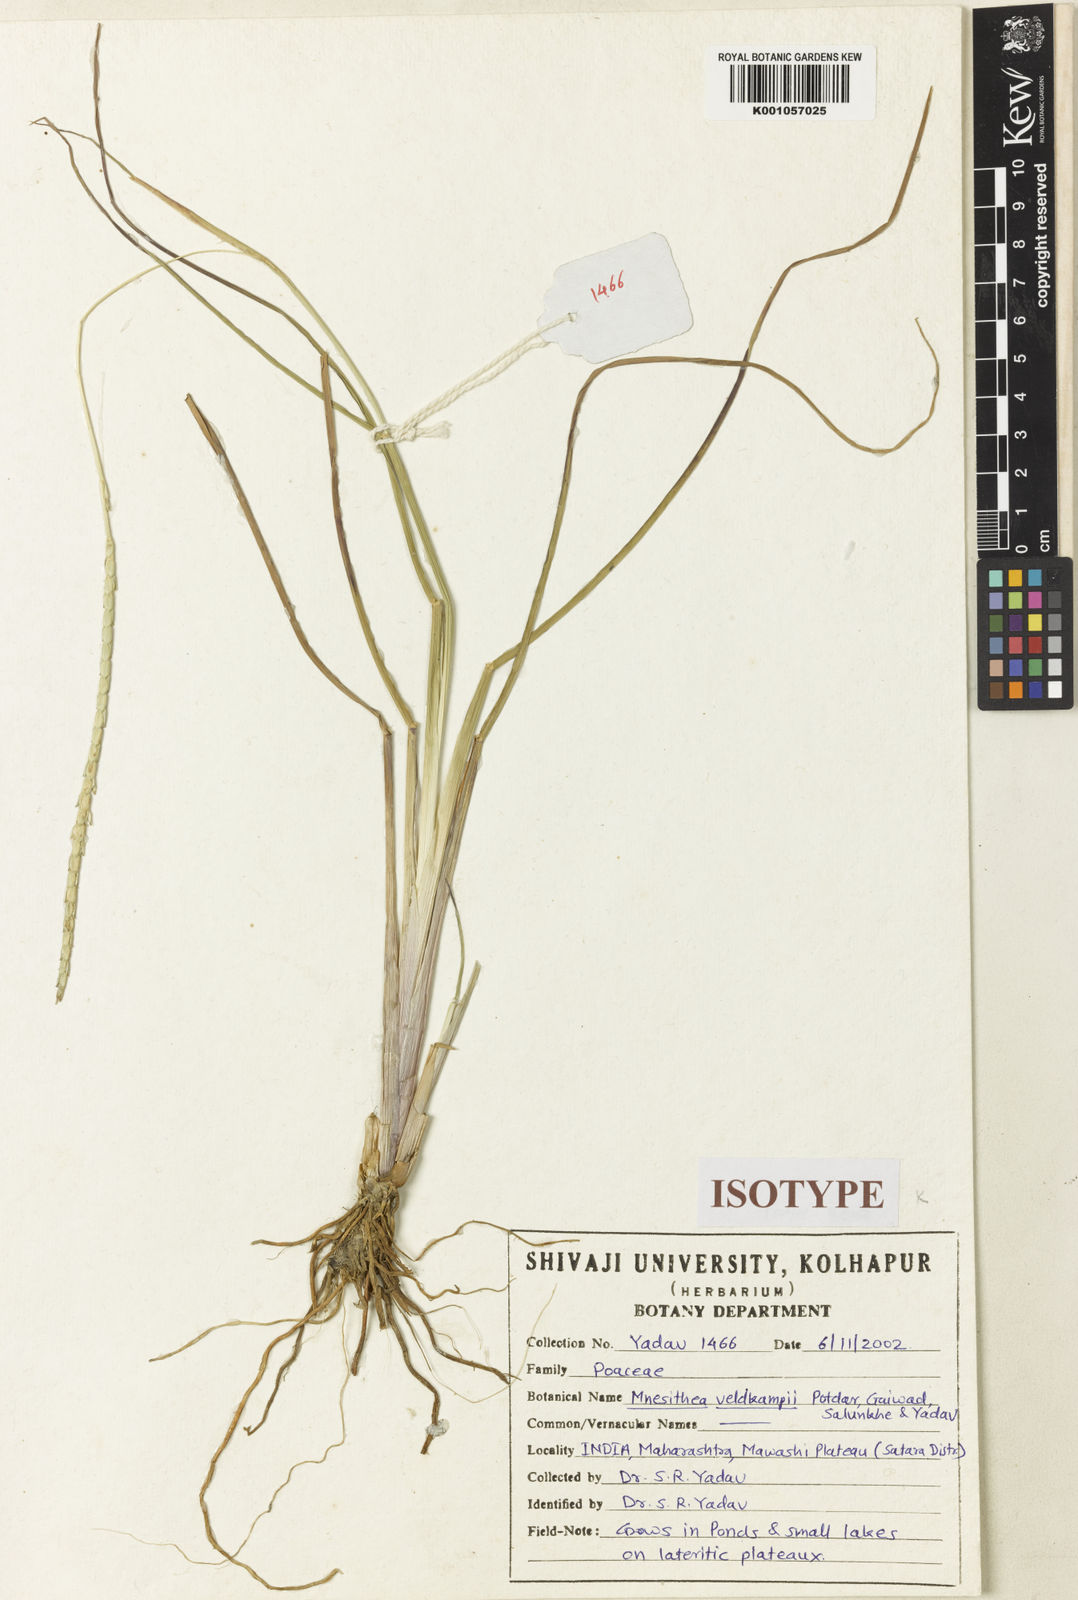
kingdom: Plantae
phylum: Tracheophyta
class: Liliopsida
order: Poales
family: Poaceae
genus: Mnesithea
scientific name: Mnesithea veldkampii
